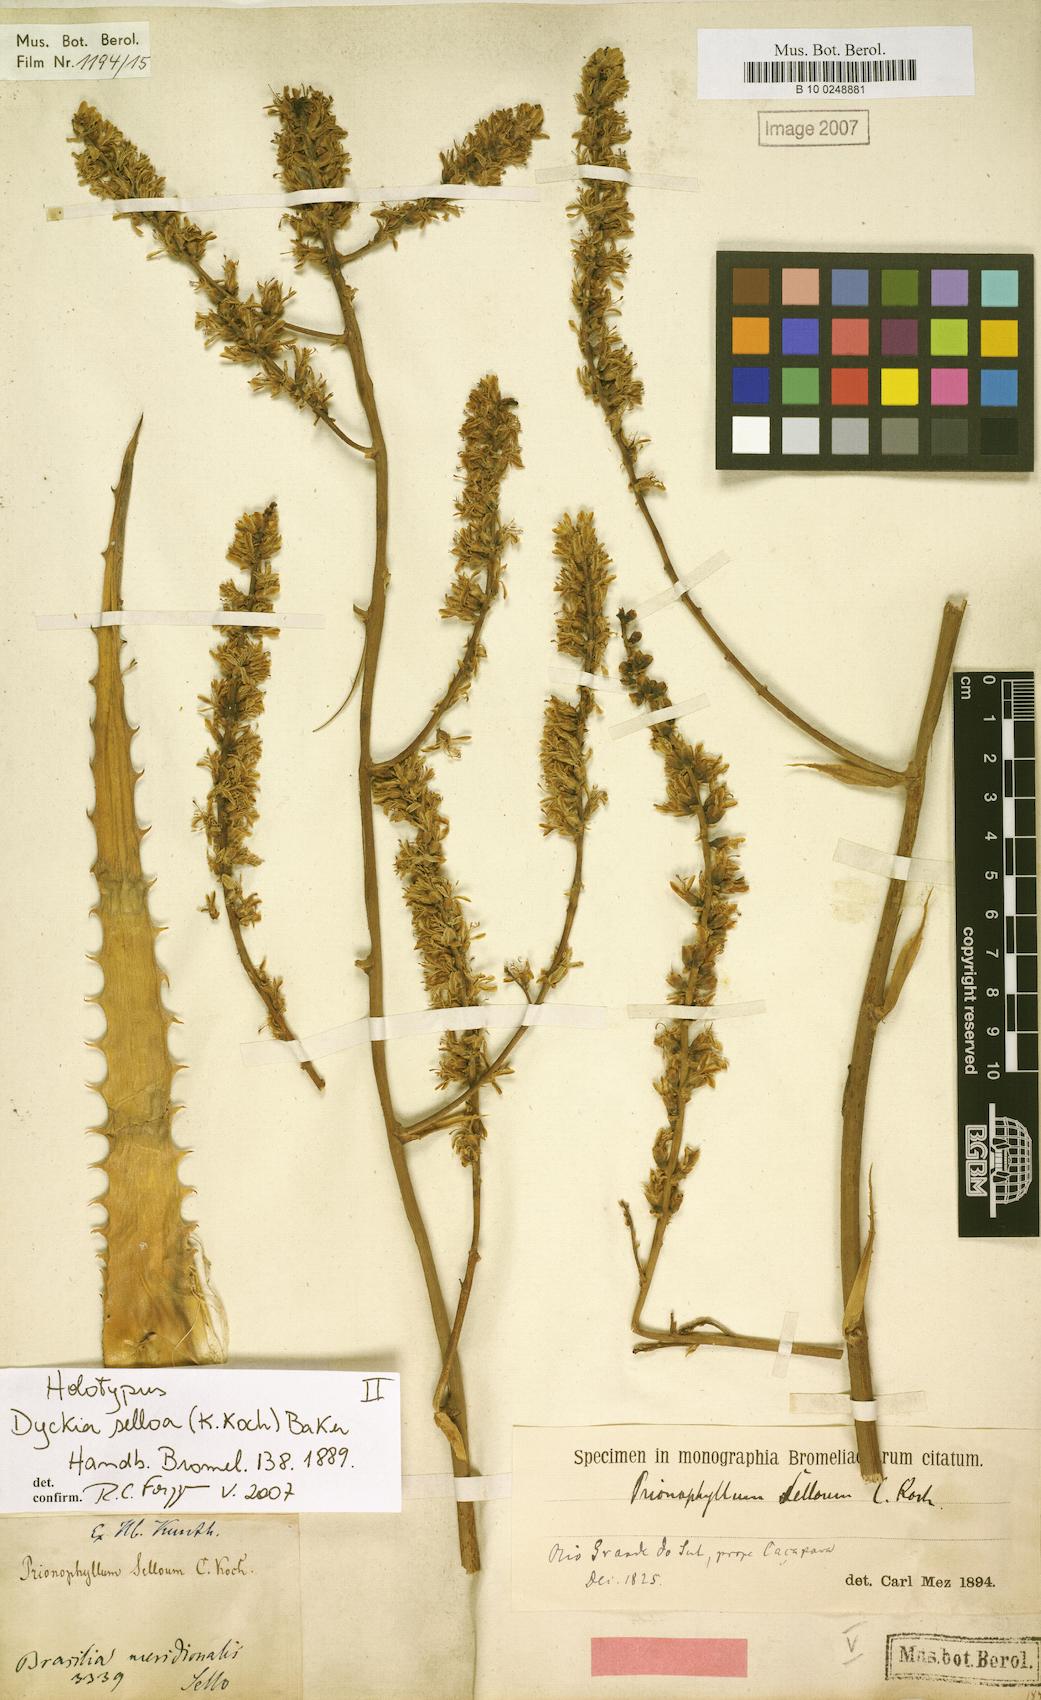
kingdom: Plantae
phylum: Tracheophyta
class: Liliopsida
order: Poales
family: Bromeliaceae
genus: Dyckia
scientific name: Dyckia selloa
